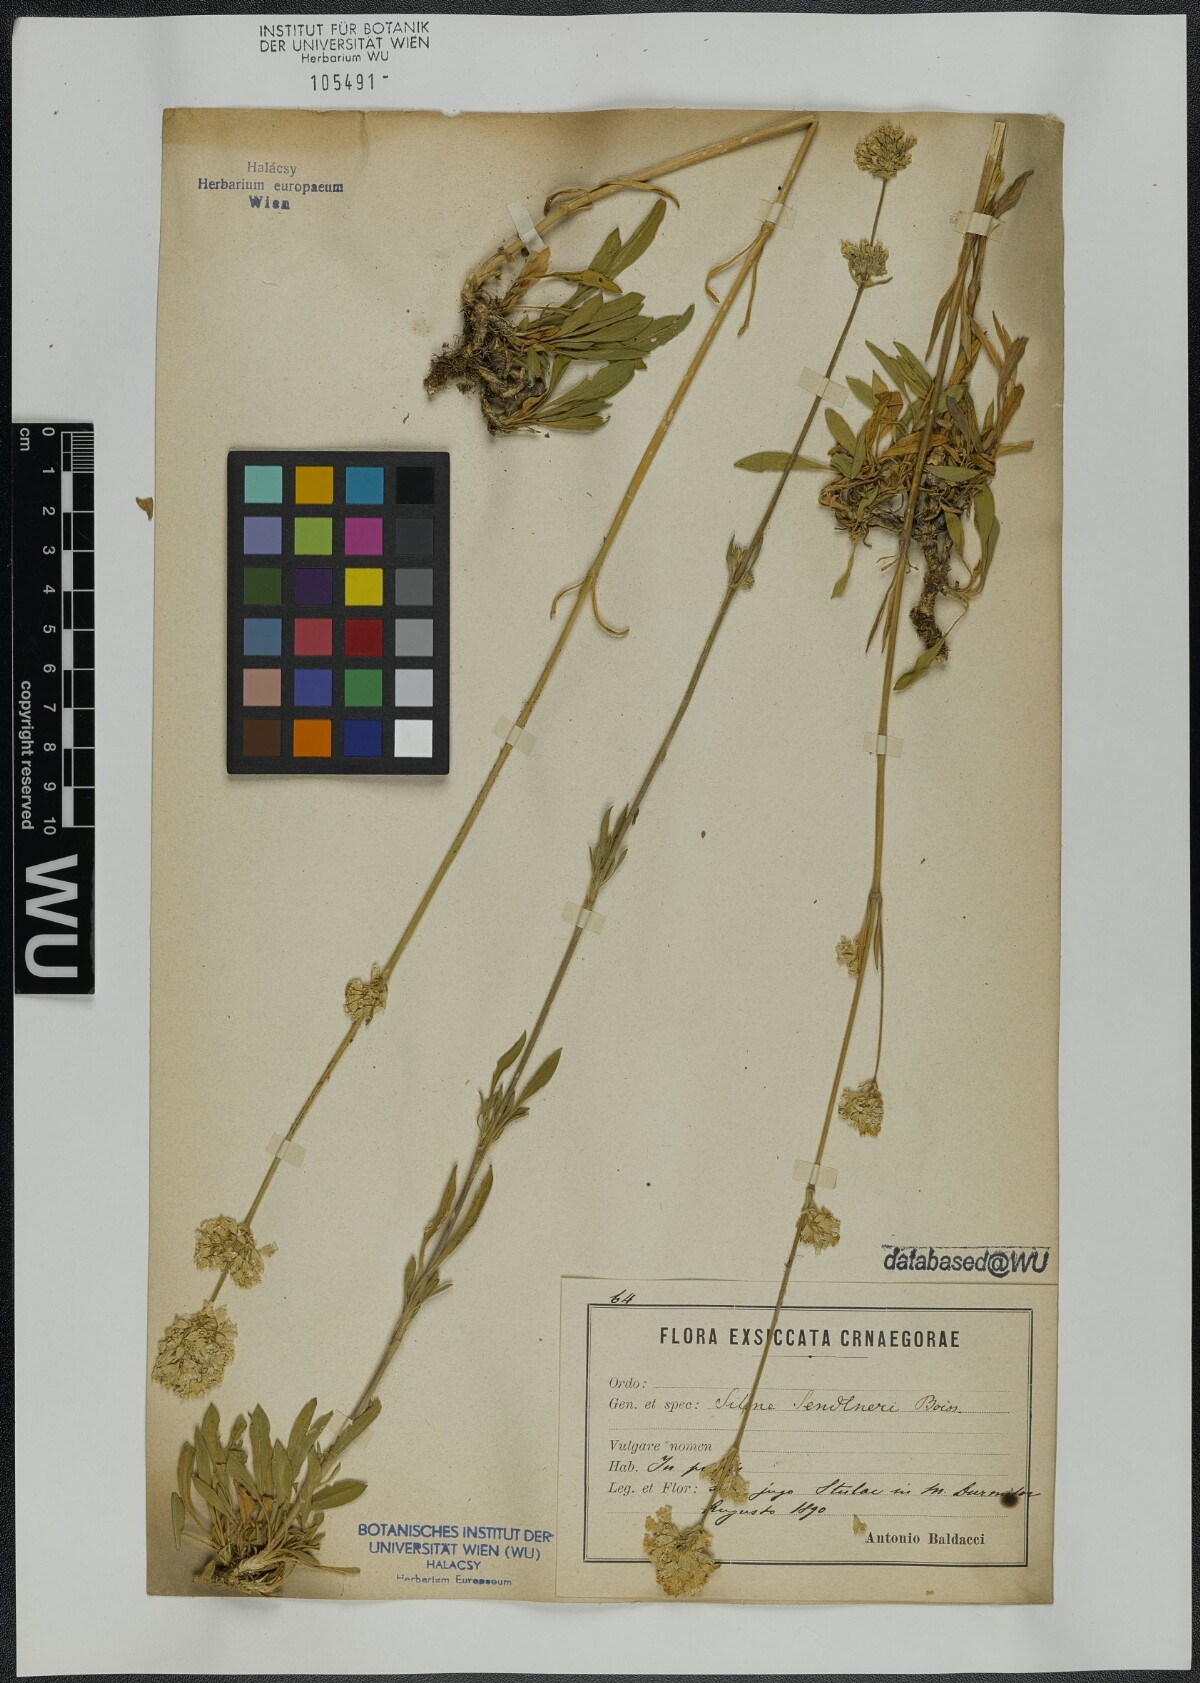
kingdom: Plantae
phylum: Tracheophyta
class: Magnoliopsida
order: Caryophyllales
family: Caryophyllaceae
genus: Silene
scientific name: Silene sendtneri
